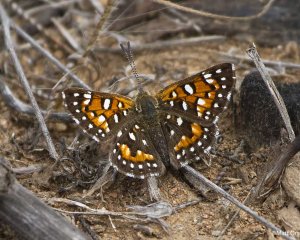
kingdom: Animalia
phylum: Arthropoda
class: Insecta
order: Lepidoptera
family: Riodinidae
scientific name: Riodinidae
